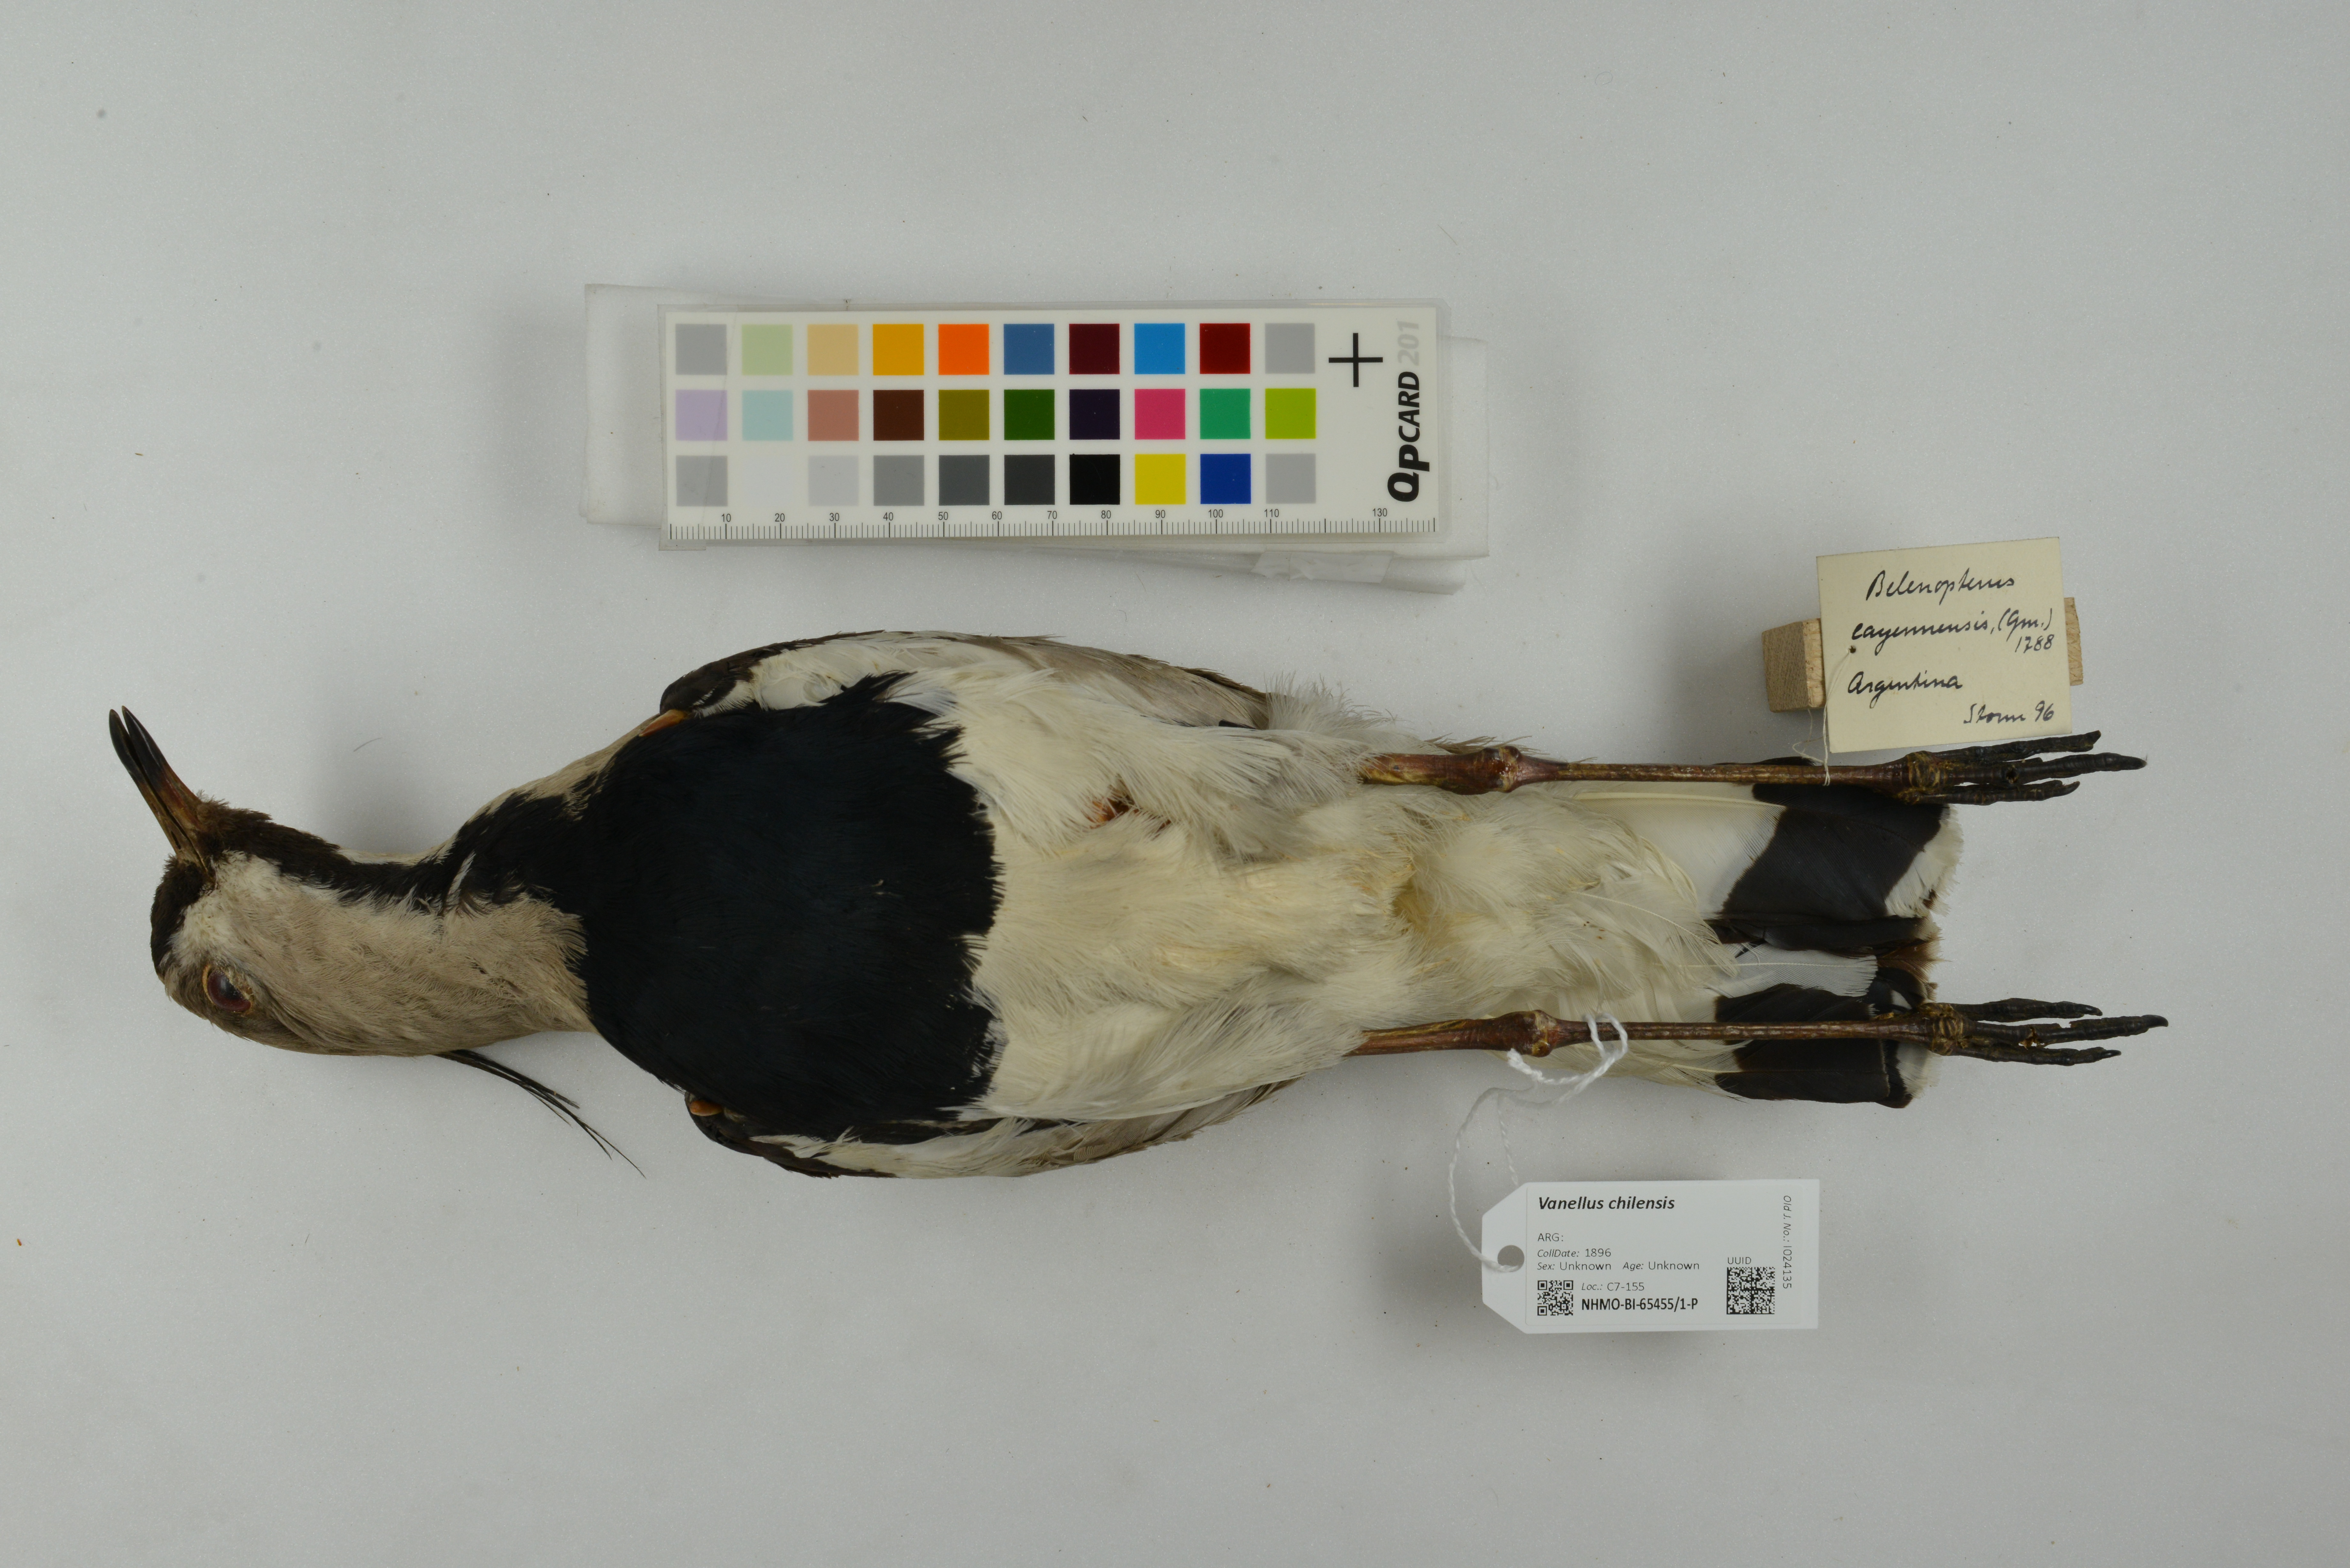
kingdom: Animalia
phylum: Chordata
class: Aves
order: Charadriiformes
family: Charadriidae
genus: Vanellus
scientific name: Vanellus chilensis
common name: Southern lapwing
